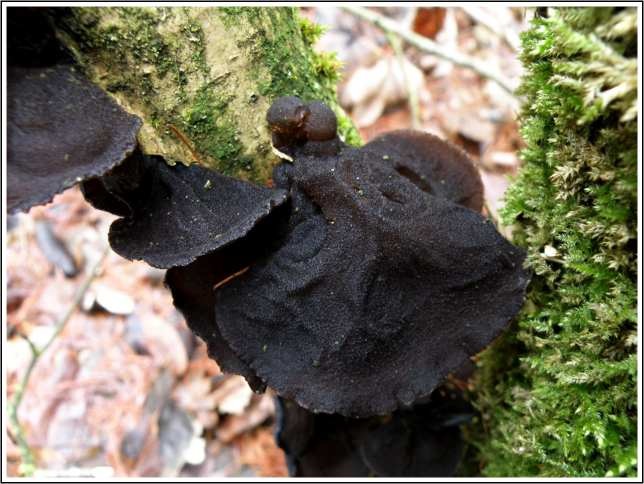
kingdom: Fungi
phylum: Basidiomycota
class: Agaricomycetes
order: Auriculariales
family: Auriculariaceae
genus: Exidia
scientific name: Exidia glandulosa
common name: ege-bævretop
